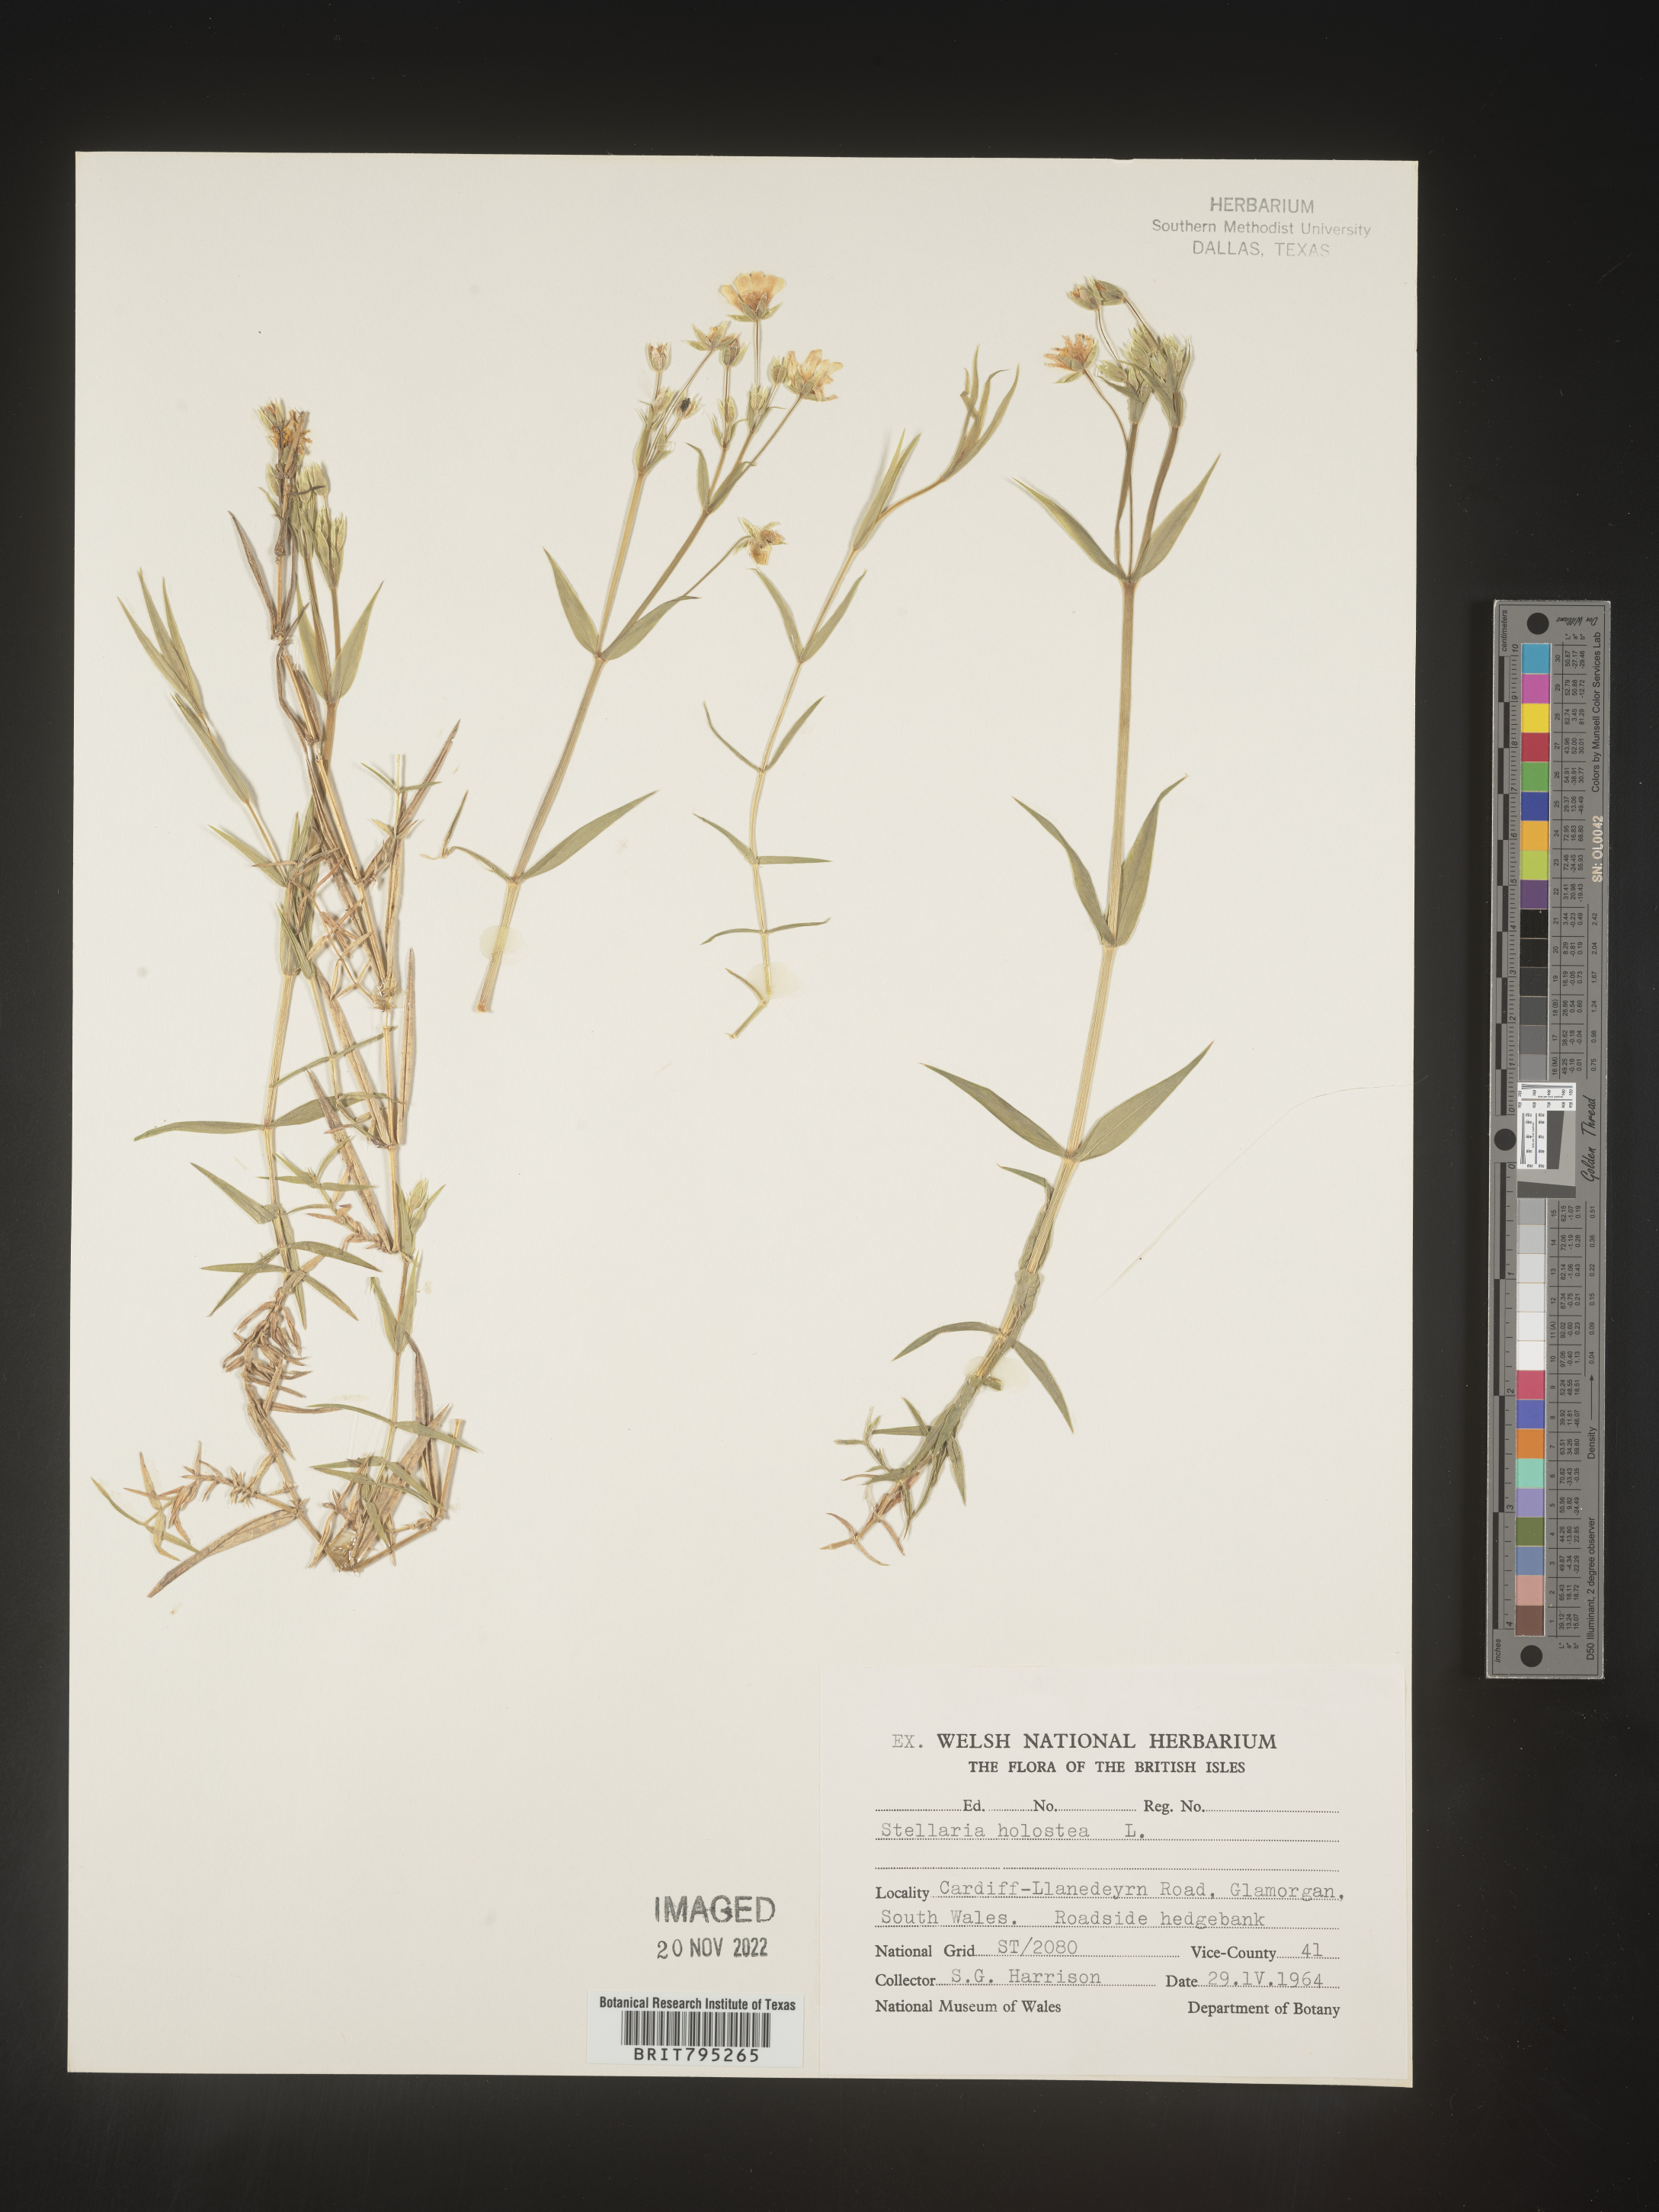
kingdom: Plantae
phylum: Tracheophyta
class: Magnoliopsida
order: Caryophyllales
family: Caryophyllaceae
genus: Stellaria
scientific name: Stellaria
